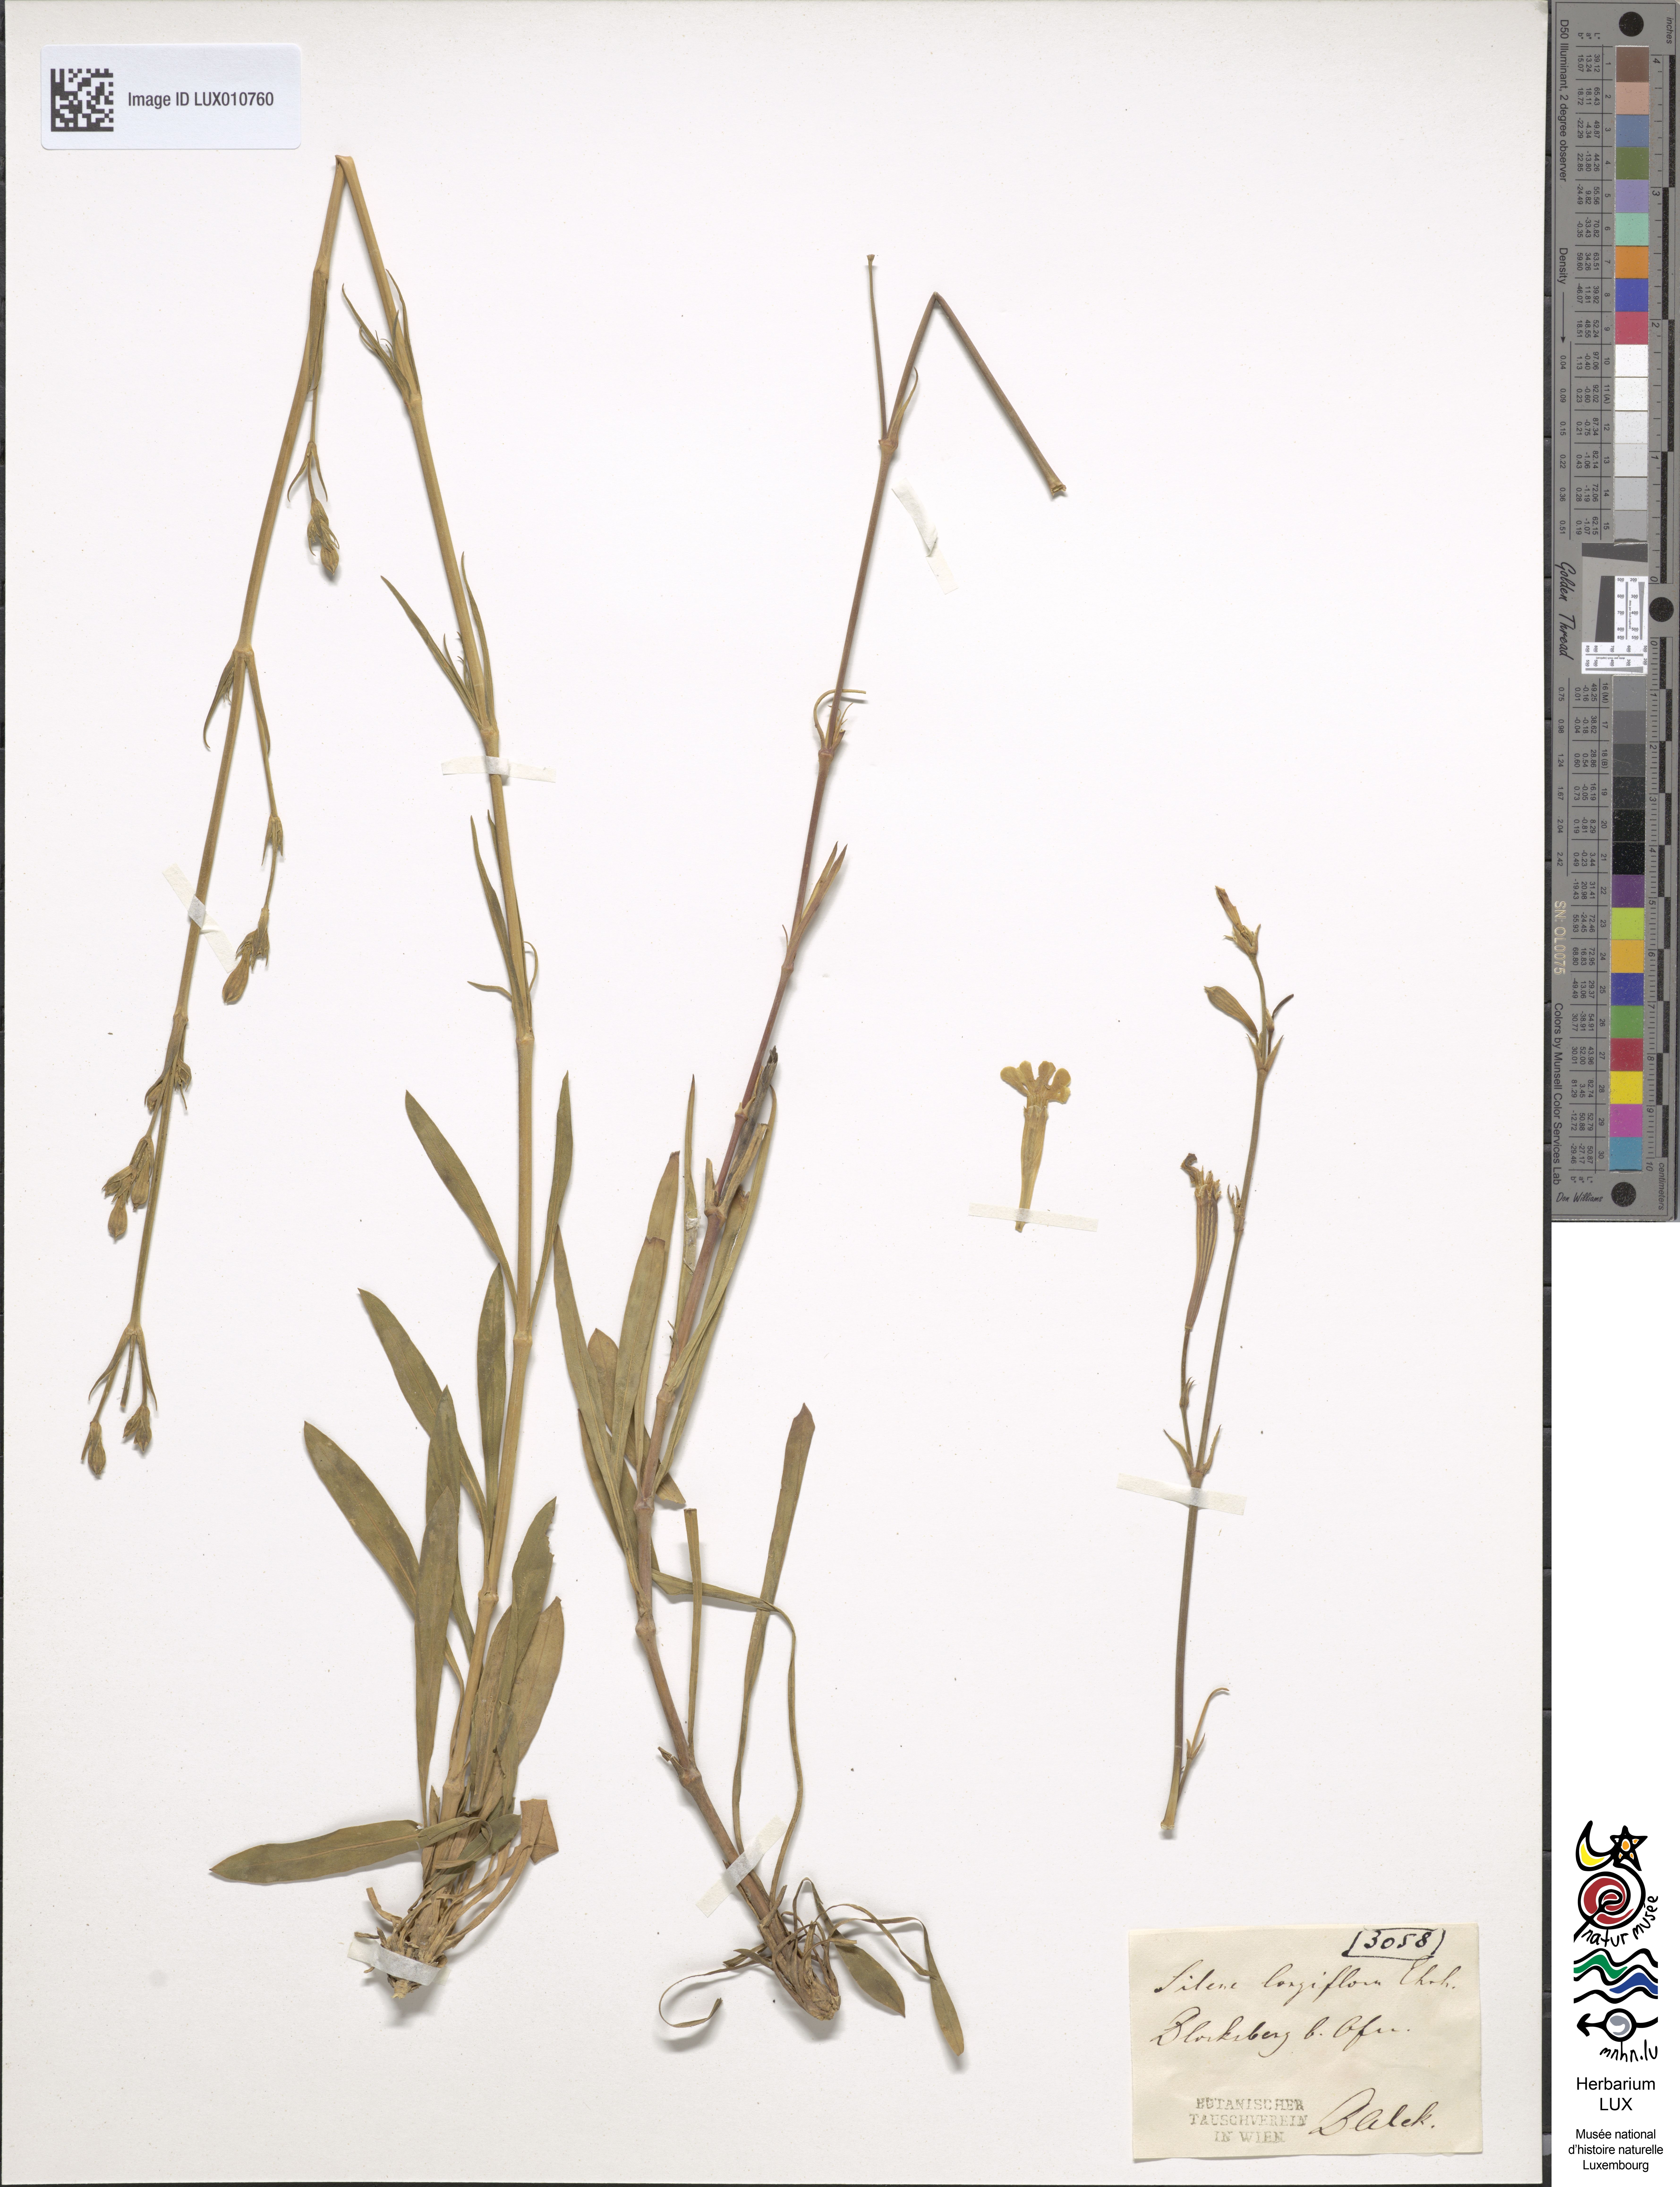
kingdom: Plantae
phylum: Tracheophyta
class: Magnoliopsida
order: Caryophyllales
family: Caryophyllaceae
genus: Silene
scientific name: Silene bupleuroides
